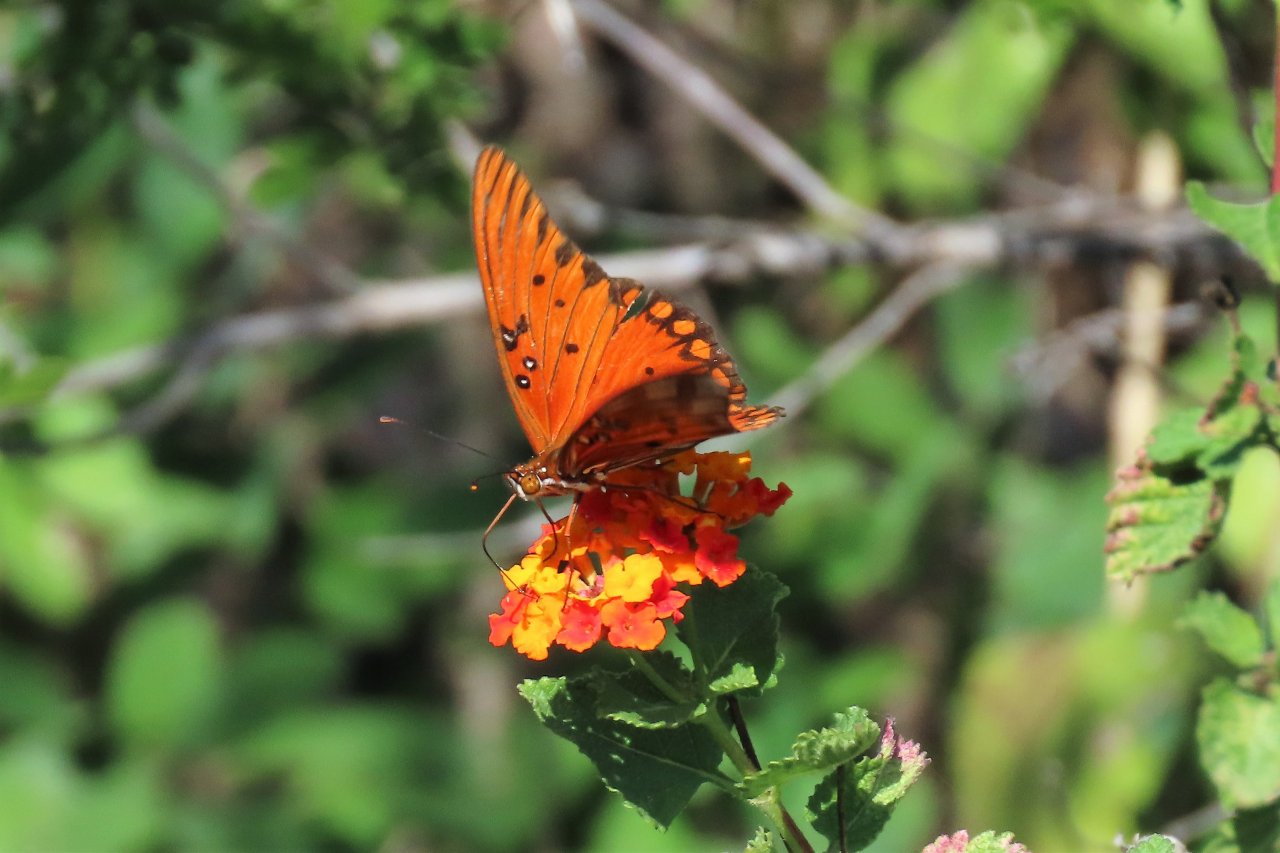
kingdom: Animalia
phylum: Arthropoda
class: Insecta
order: Lepidoptera
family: Nymphalidae
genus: Dione
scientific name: Dione vanillae
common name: Gulf Fritillary
